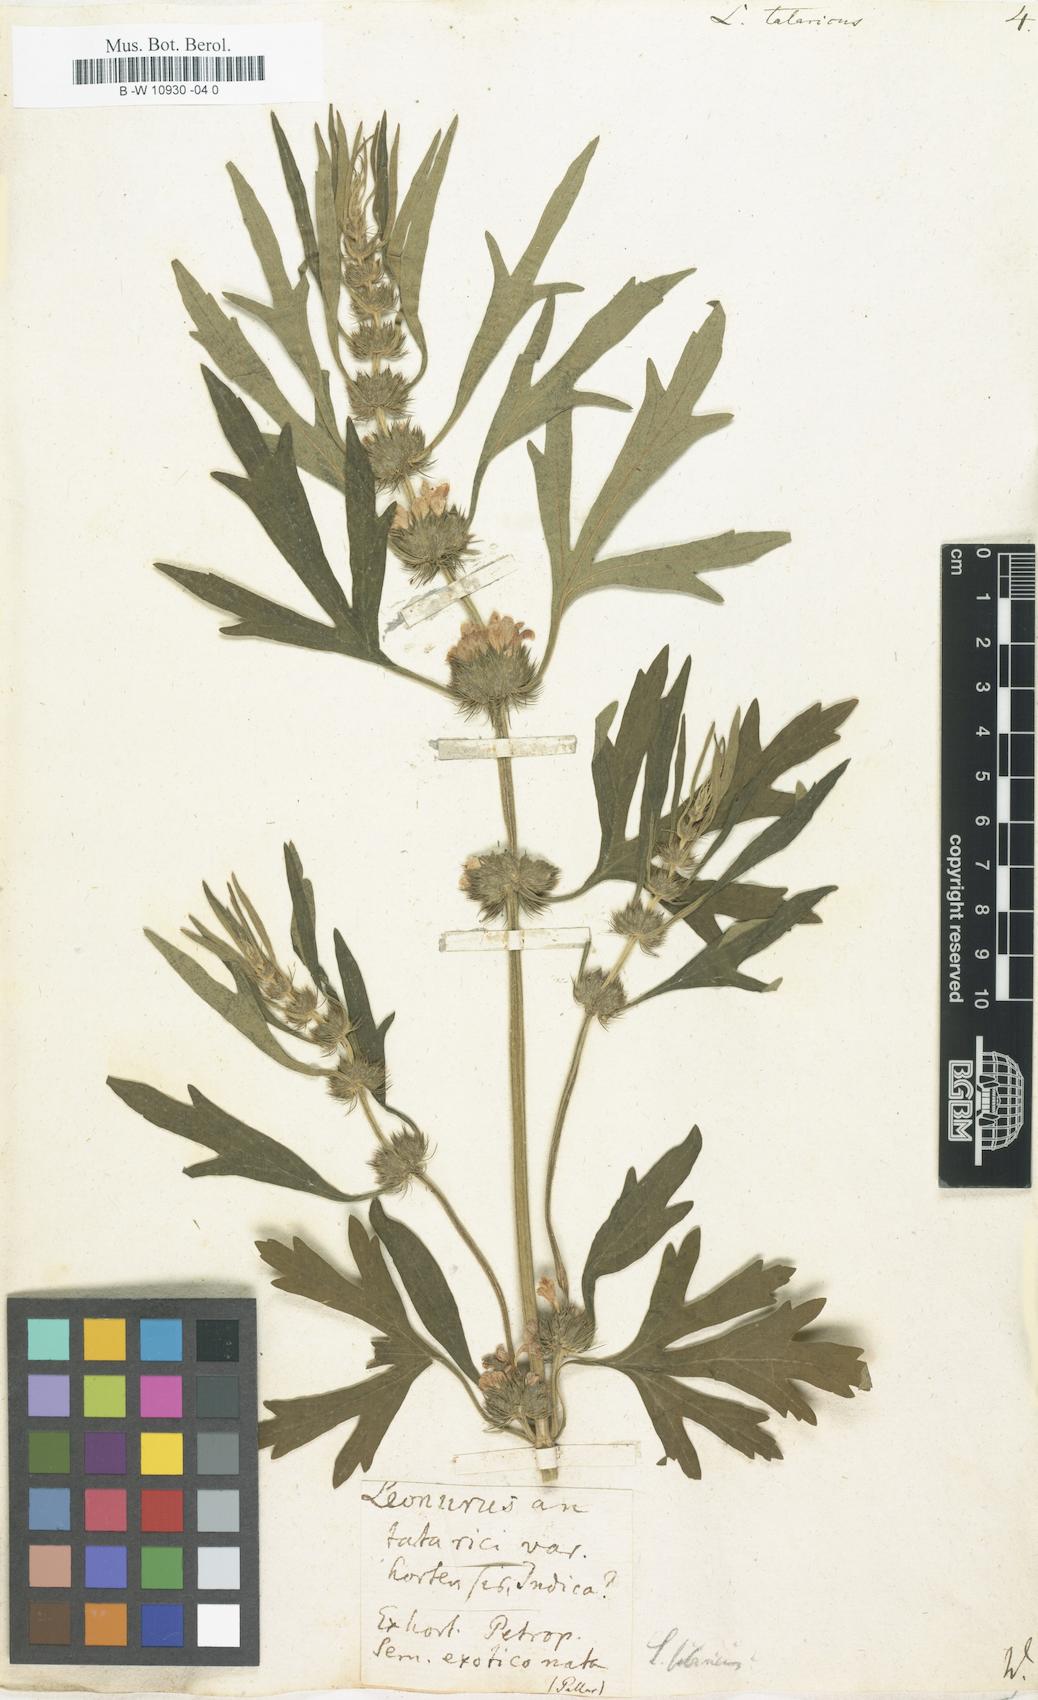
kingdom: Plantae
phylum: Tracheophyta
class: Magnoliopsida
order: Lamiales
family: Lamiaceae
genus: Leonurus
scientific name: Leonurus tataricus
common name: Chinese motherwort
